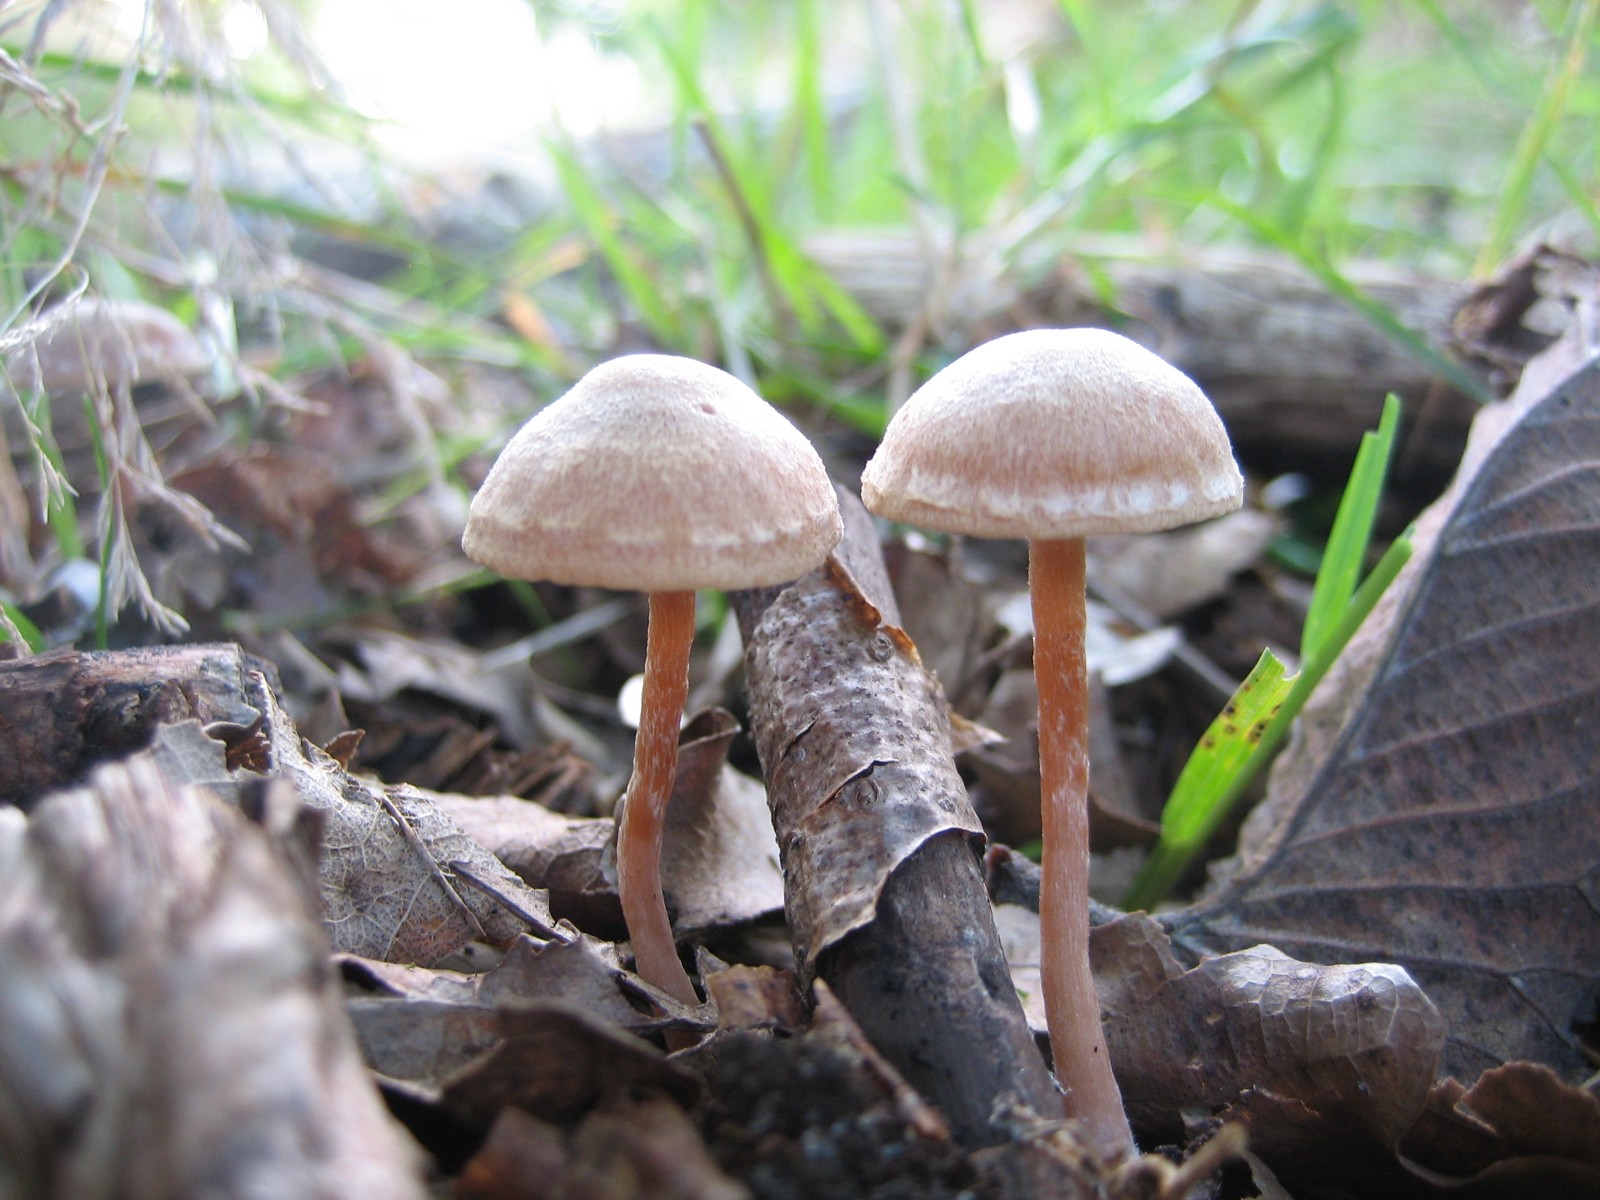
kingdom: Fungi
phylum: Basidiomycota
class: Agaricomycetes
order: Agaricales
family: Tubariaceae
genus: Tubaria
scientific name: Tubaria conspersa
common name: bleg fnughat
